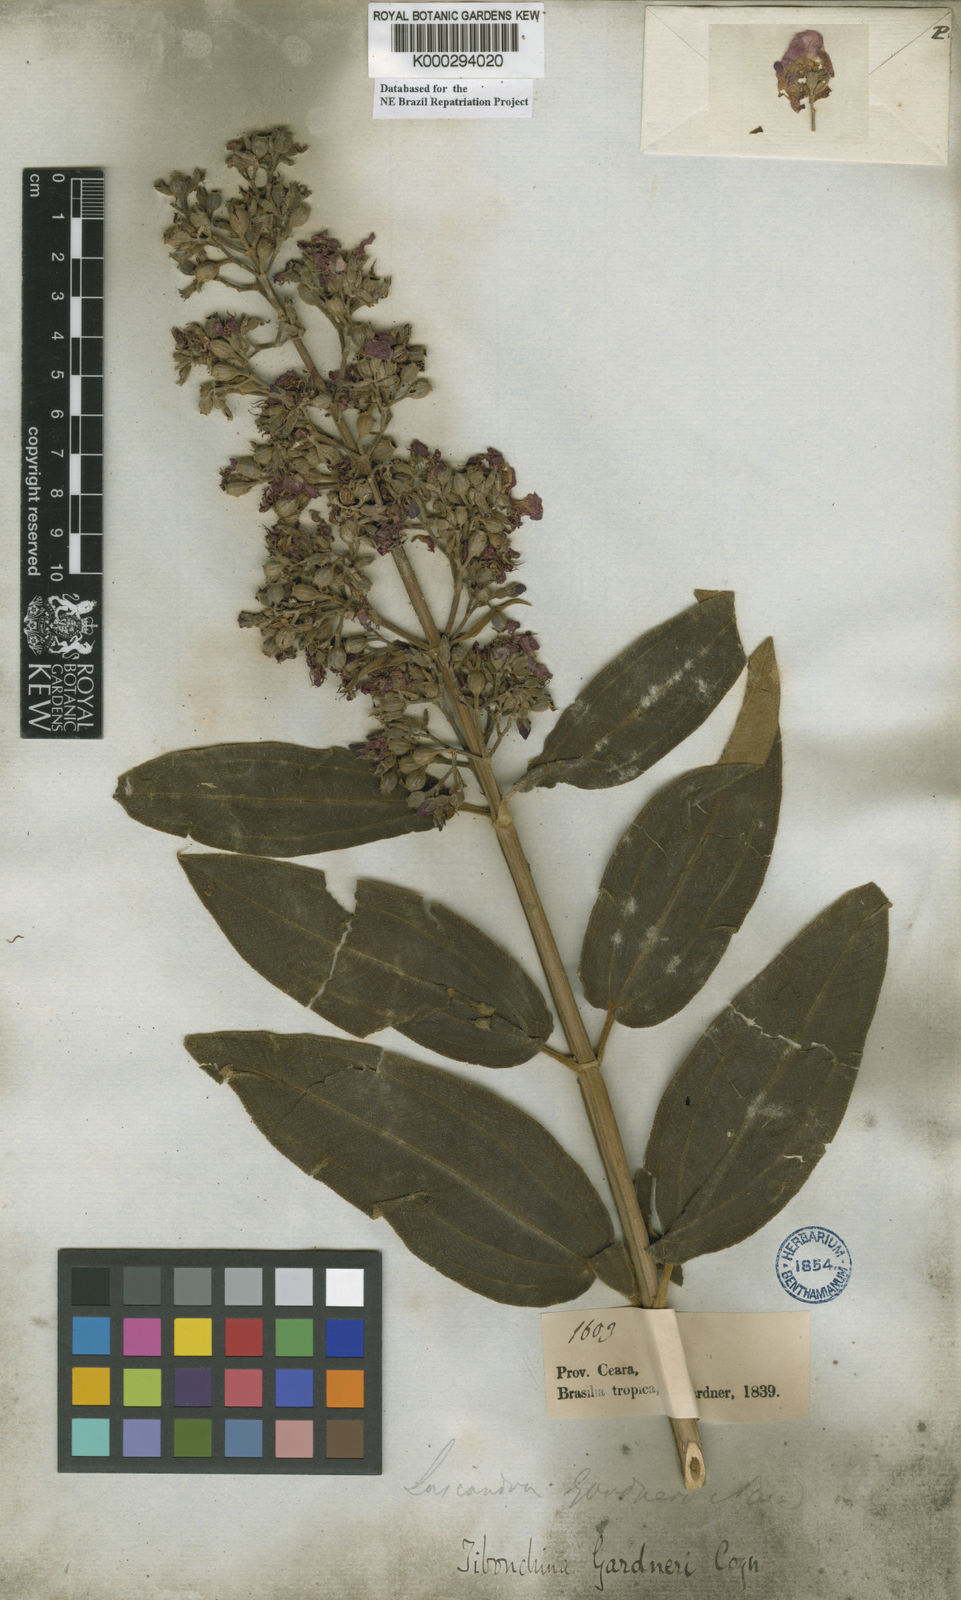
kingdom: Plantae
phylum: Tracheophyta
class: Magnoliopsida
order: Myrtales
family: Melastomataceae
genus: Pleroma
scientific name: Pleroma gardneri
